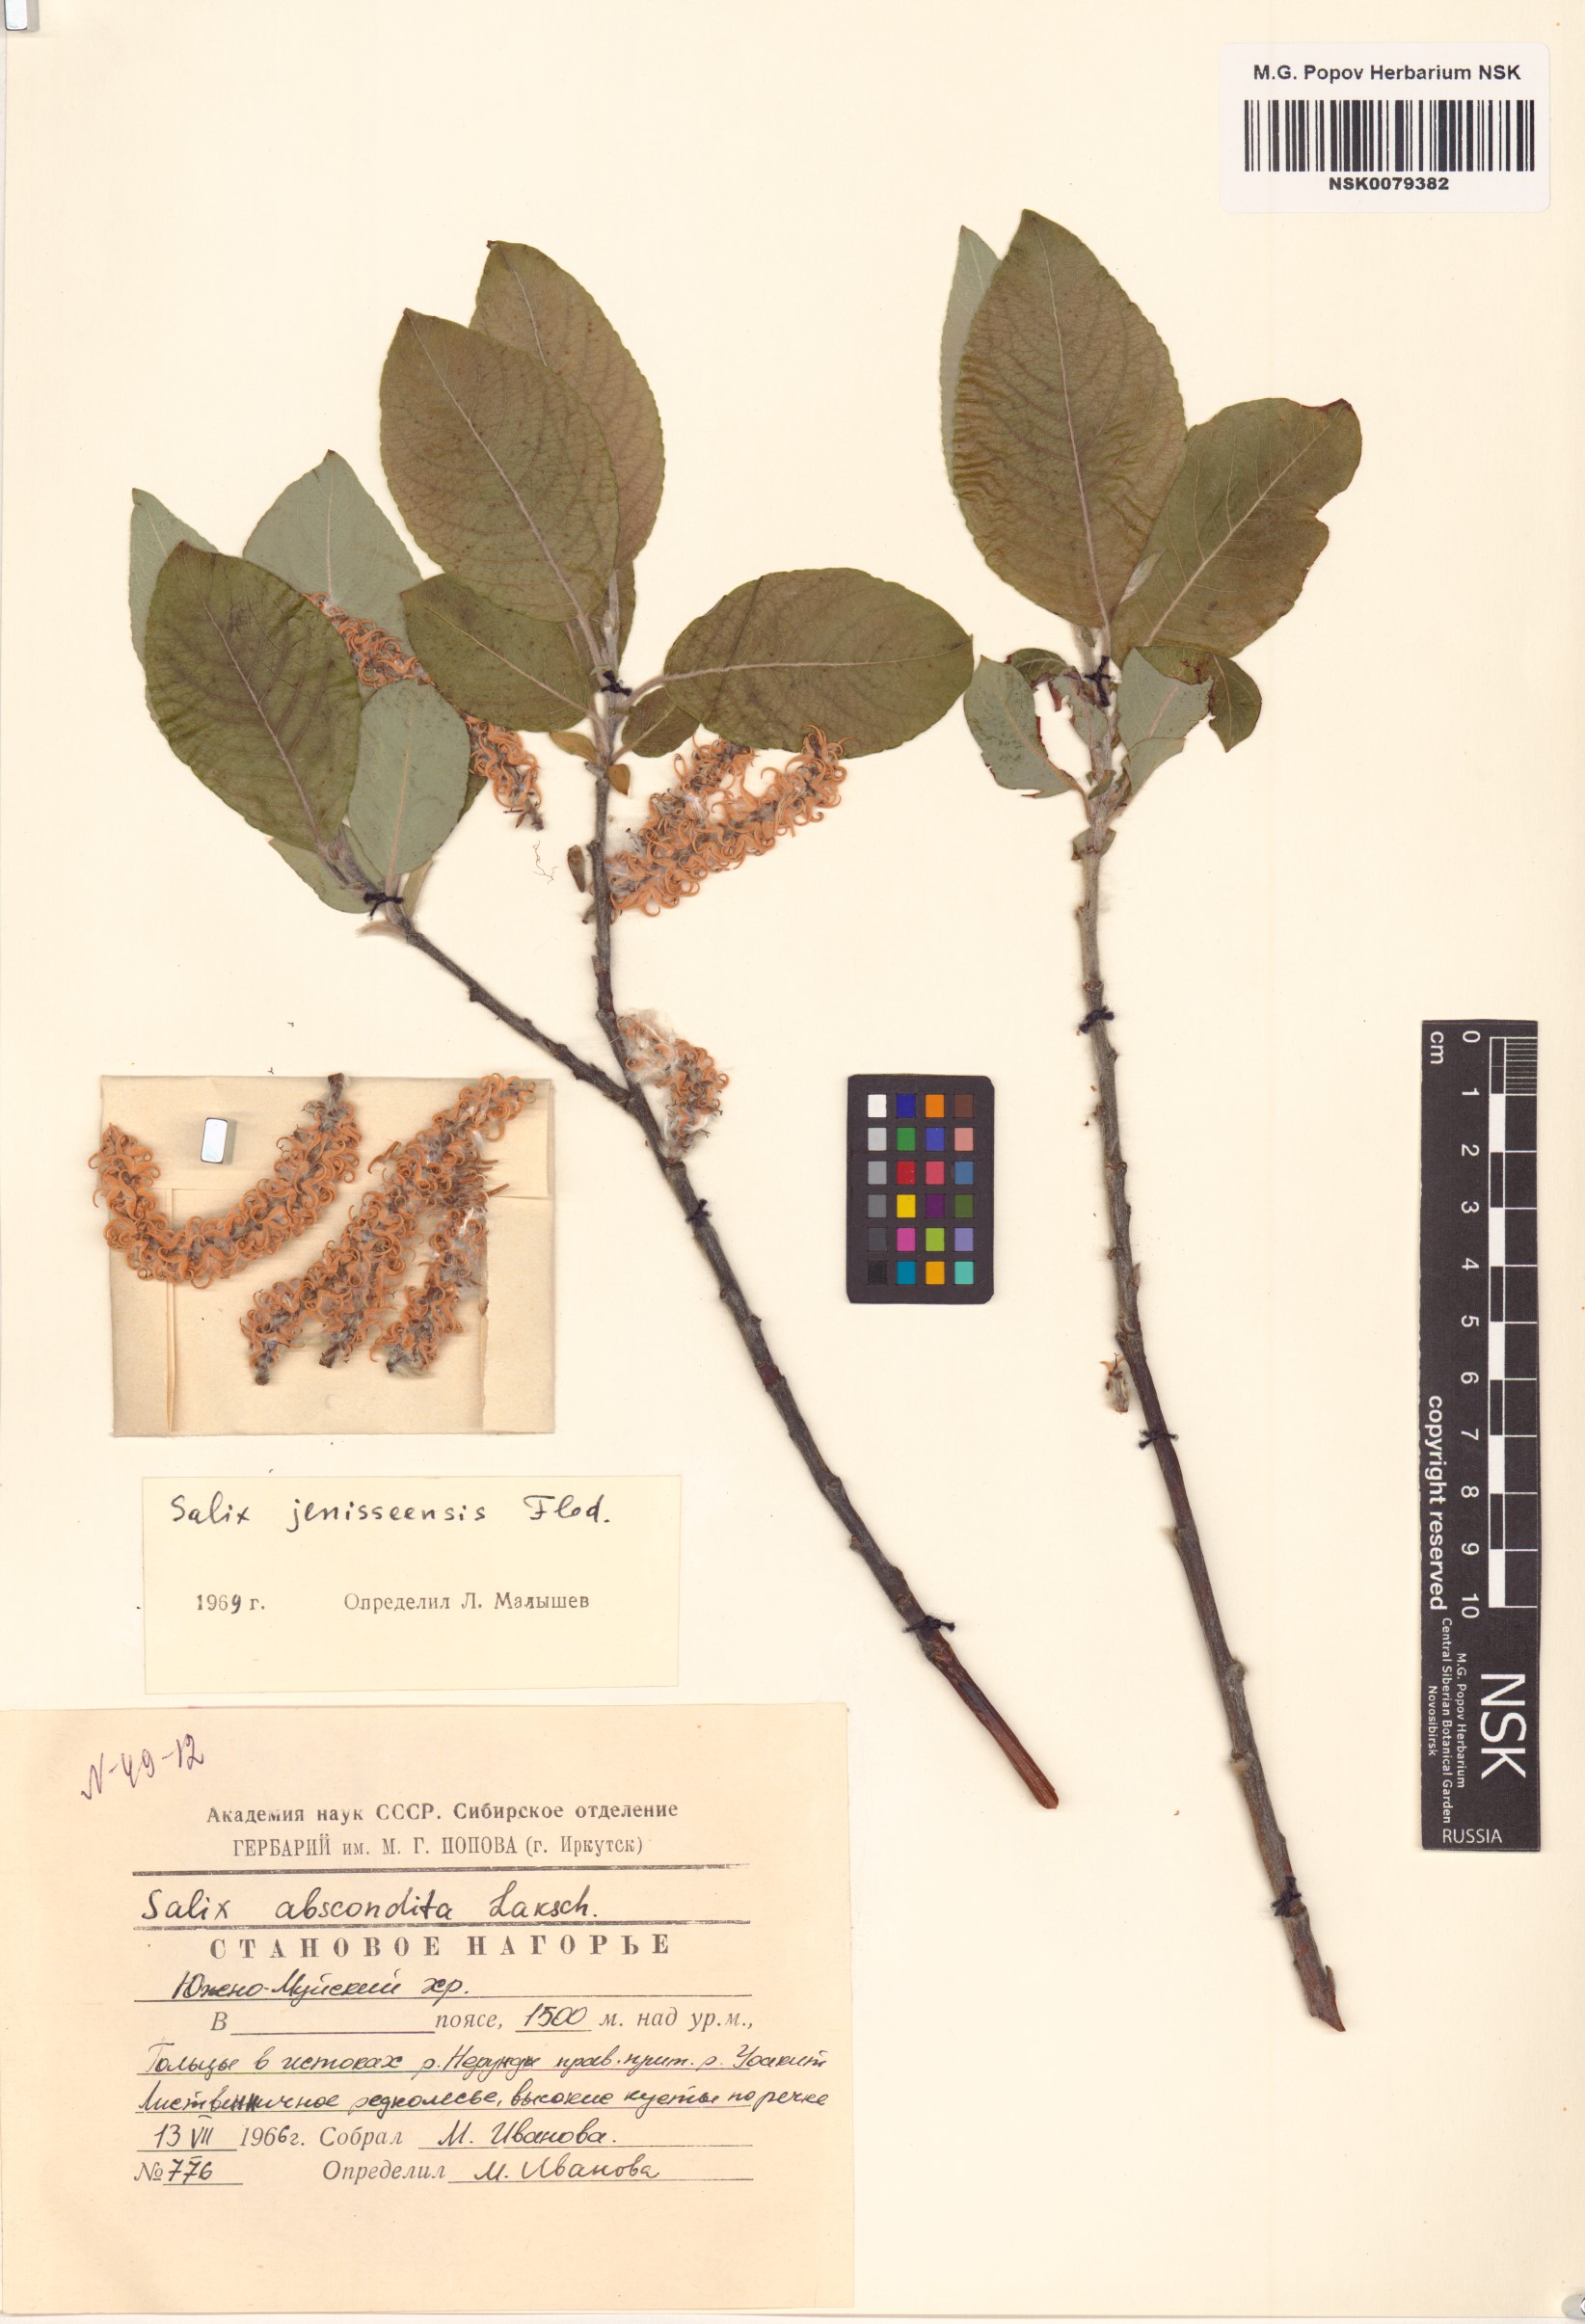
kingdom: Plantae
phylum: Tracheophyta
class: Magnoliopsida
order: Malpighiales
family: Salicaceae
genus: Salix
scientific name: Salix jenisseensis
